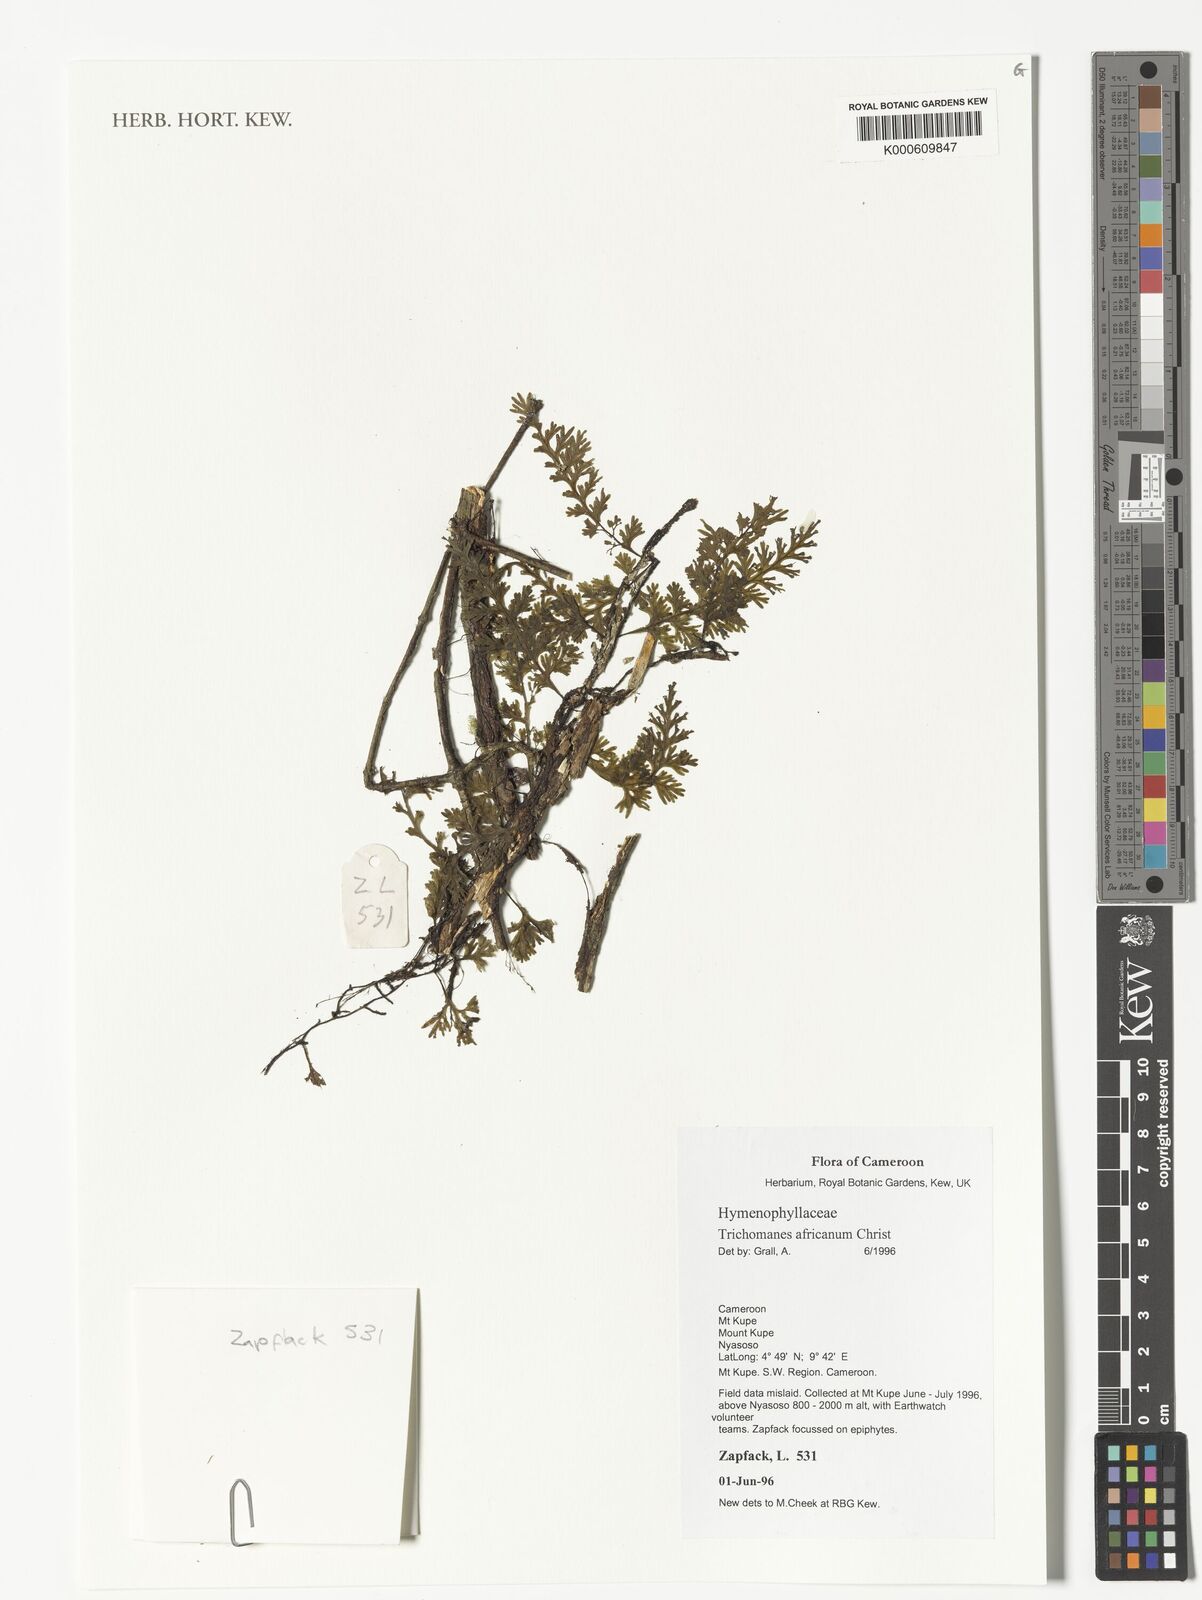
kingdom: Plantae
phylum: Tracheophyta
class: Polypodiopsida
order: Hymenophyllales
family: Hymenophyllaceae
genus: Crepidomanes
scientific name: Crepidomanes africanum
